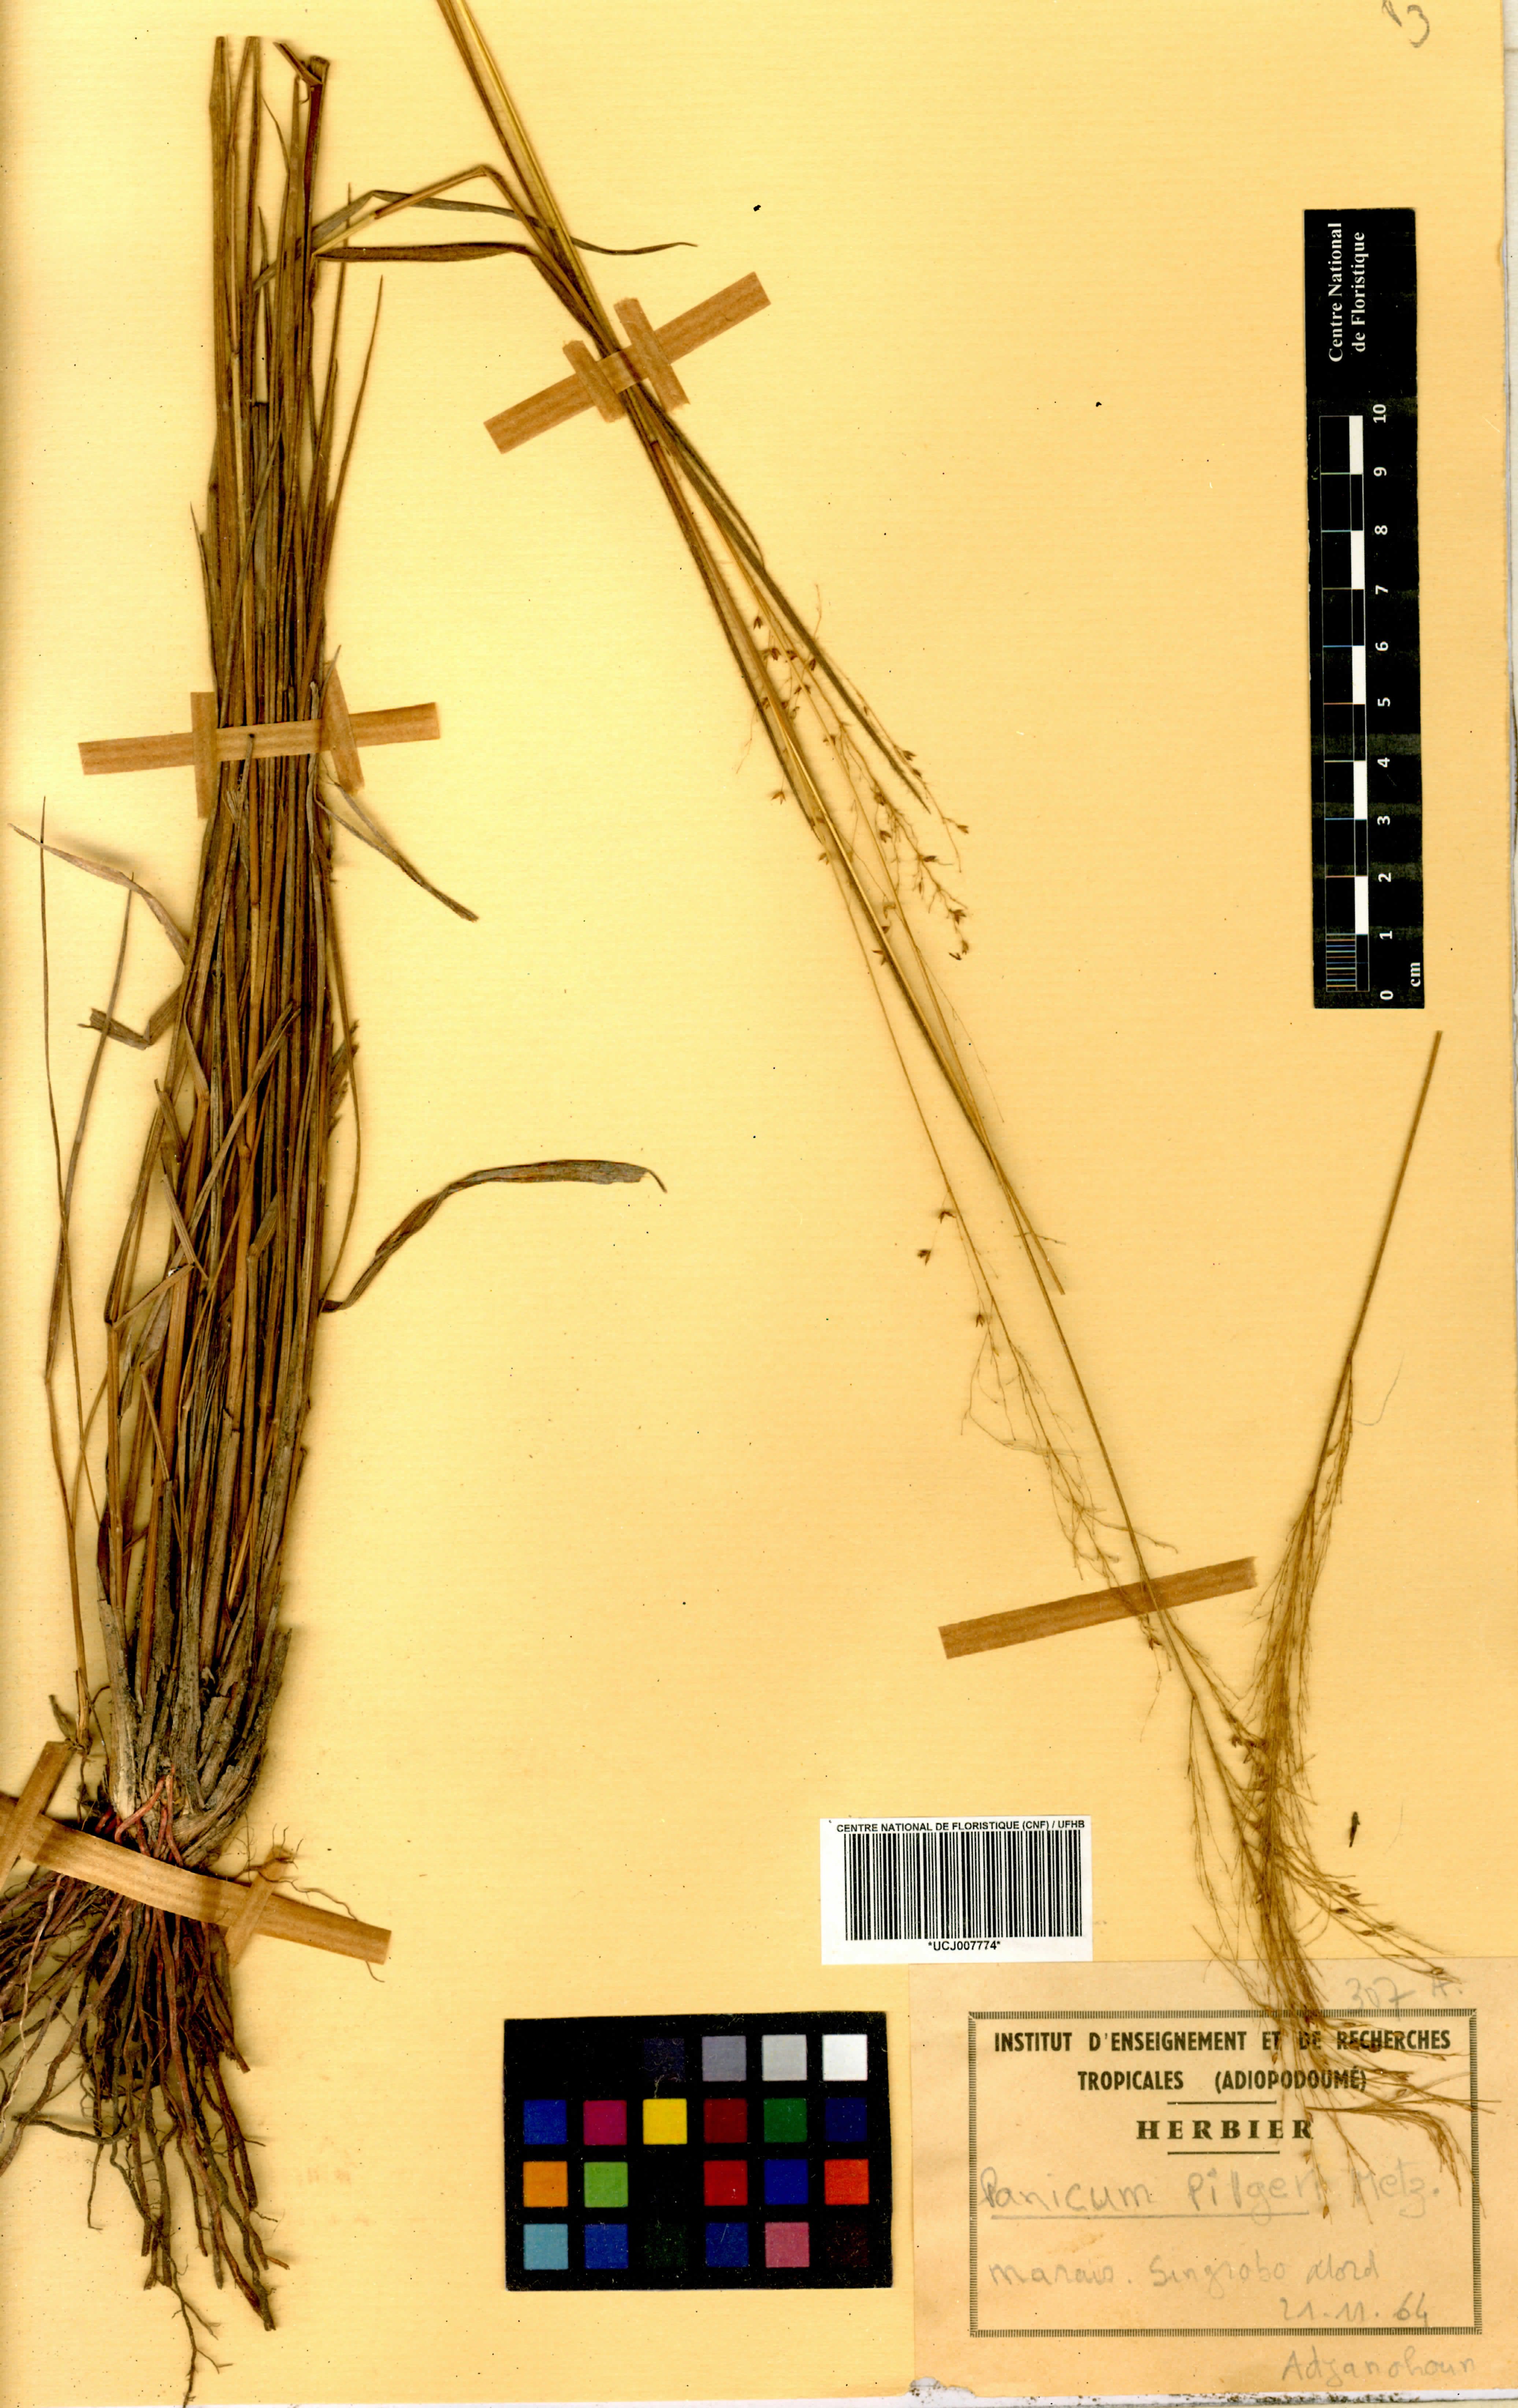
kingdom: Plantae
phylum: Tracheophyta
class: Liliopsida
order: Poales
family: Poaceae
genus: Panicum
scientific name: Panicum pilgeri
